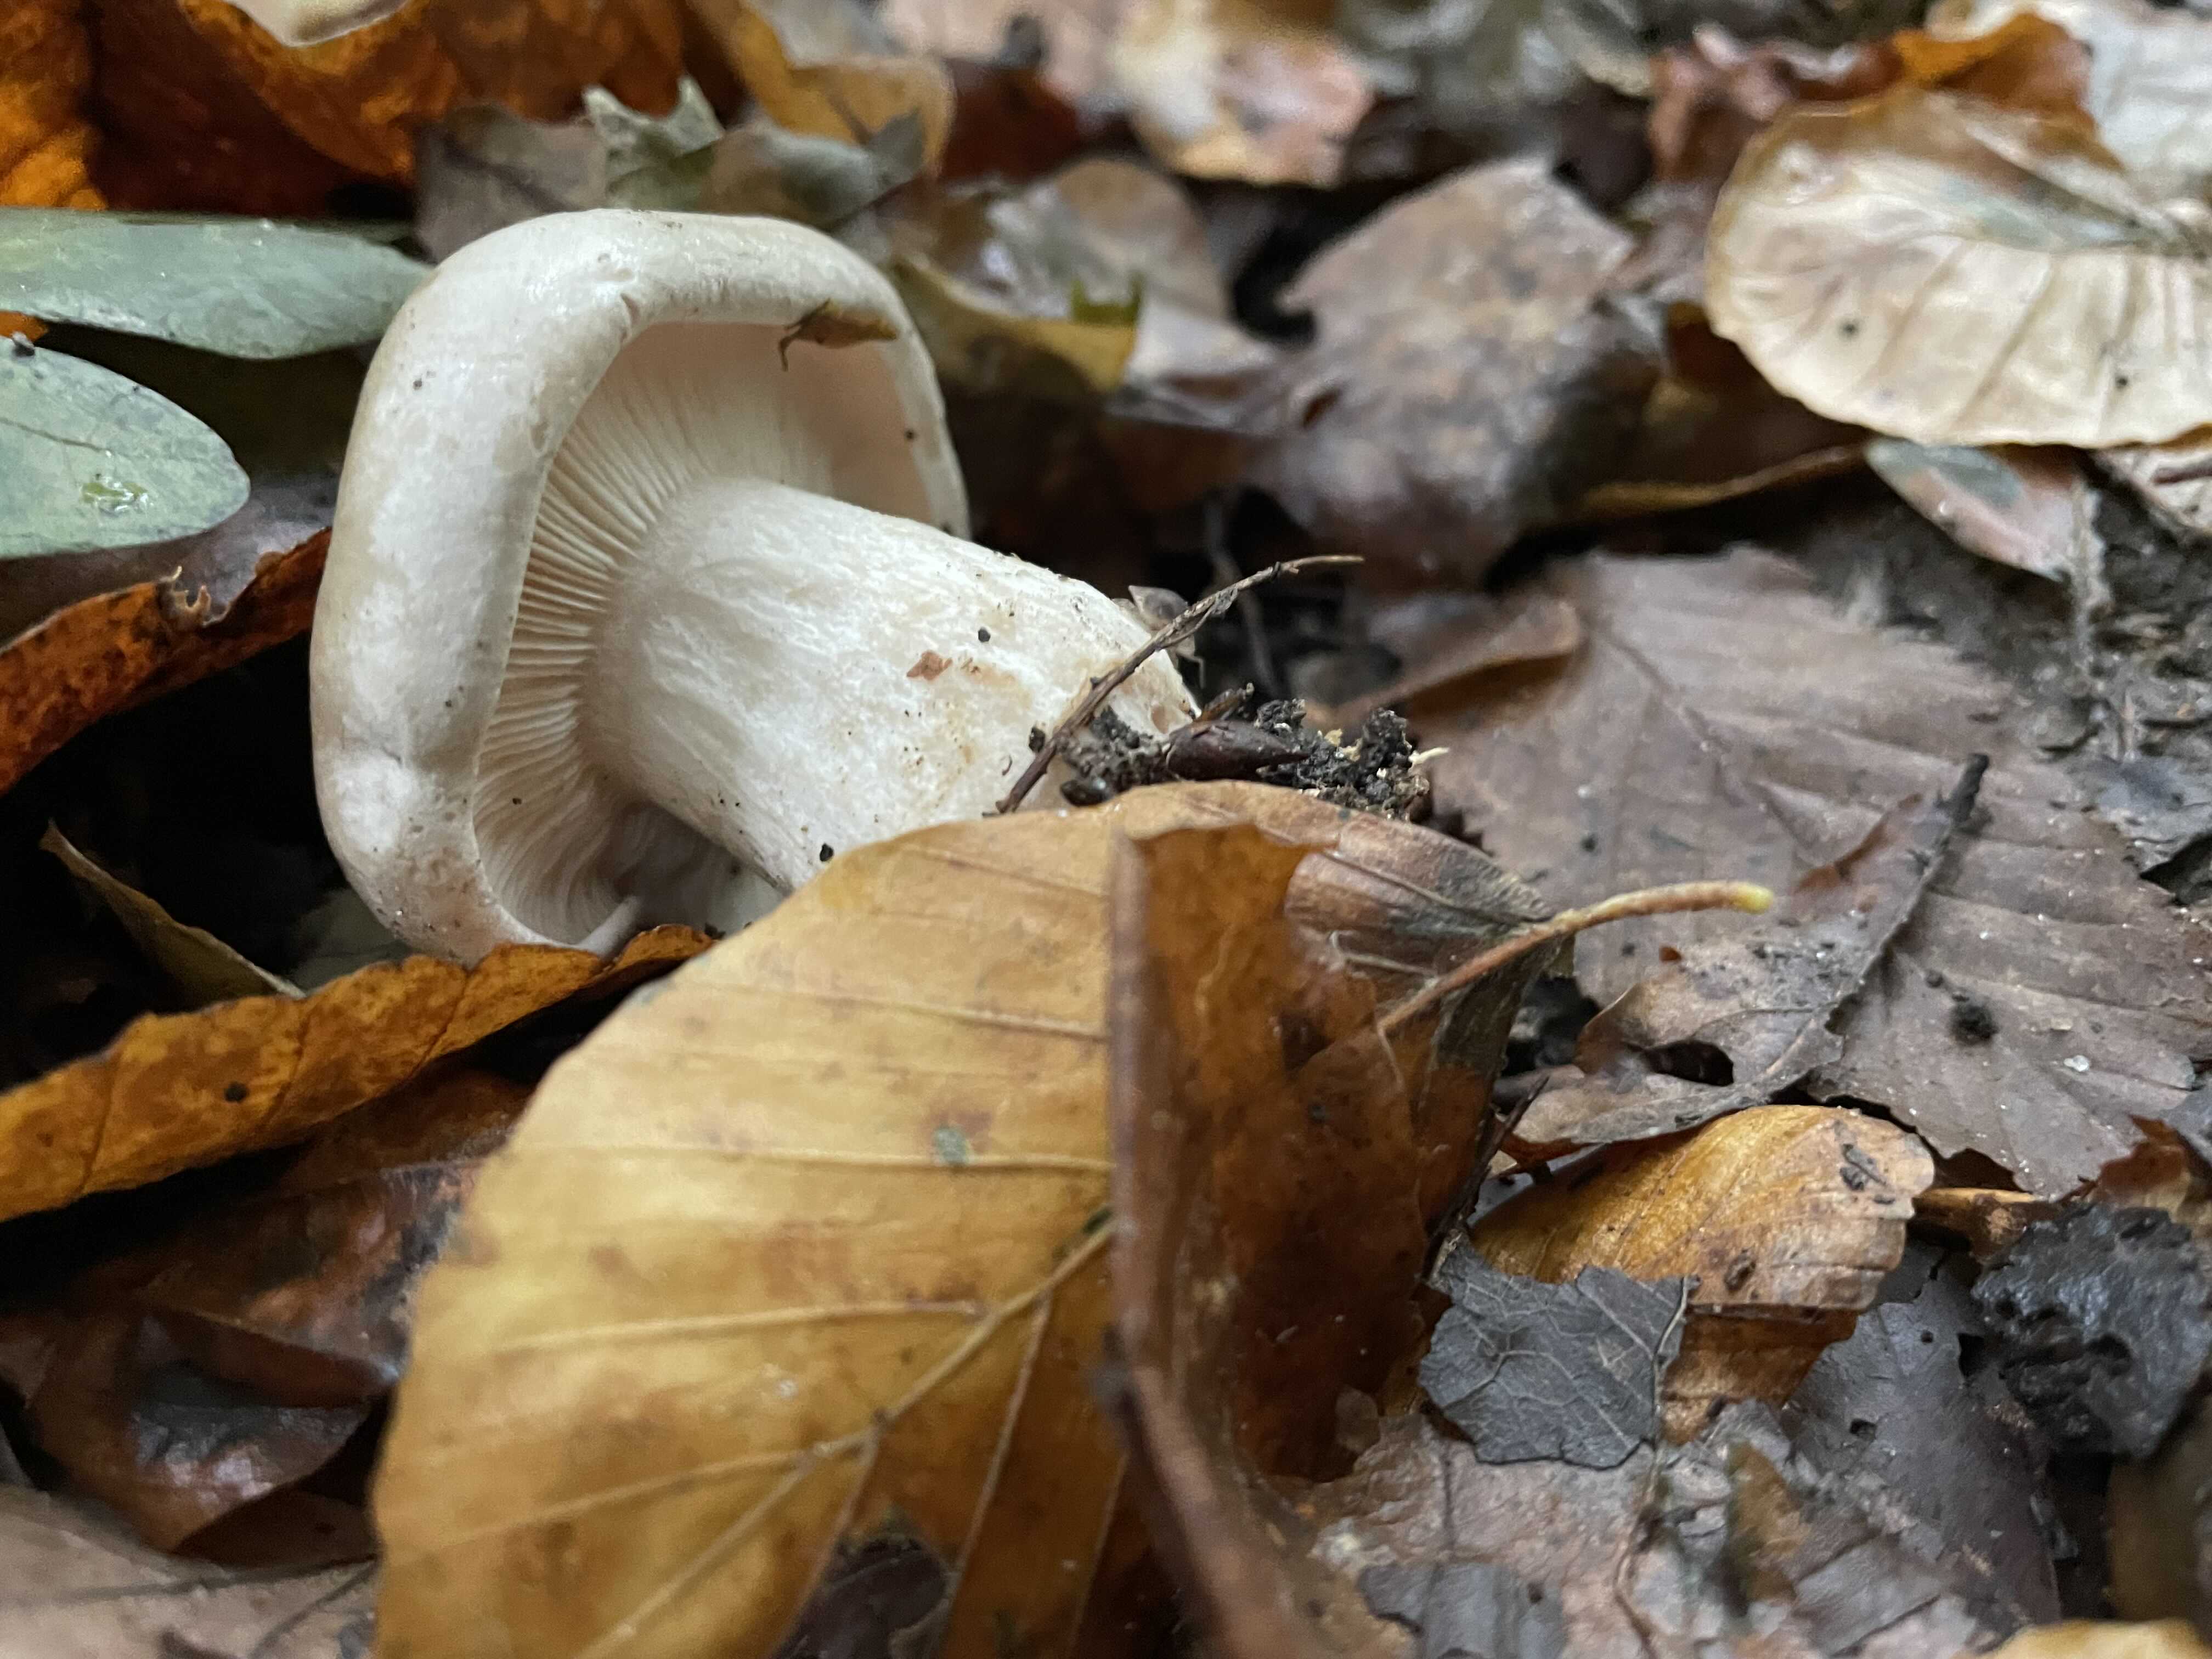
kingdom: Fungi
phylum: Basidiomycota
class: Agaricomycetes
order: Agaricales
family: Tricholomataceae
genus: Clitocybe
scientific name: Clitocybe nebularis
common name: tåge-tragthat
